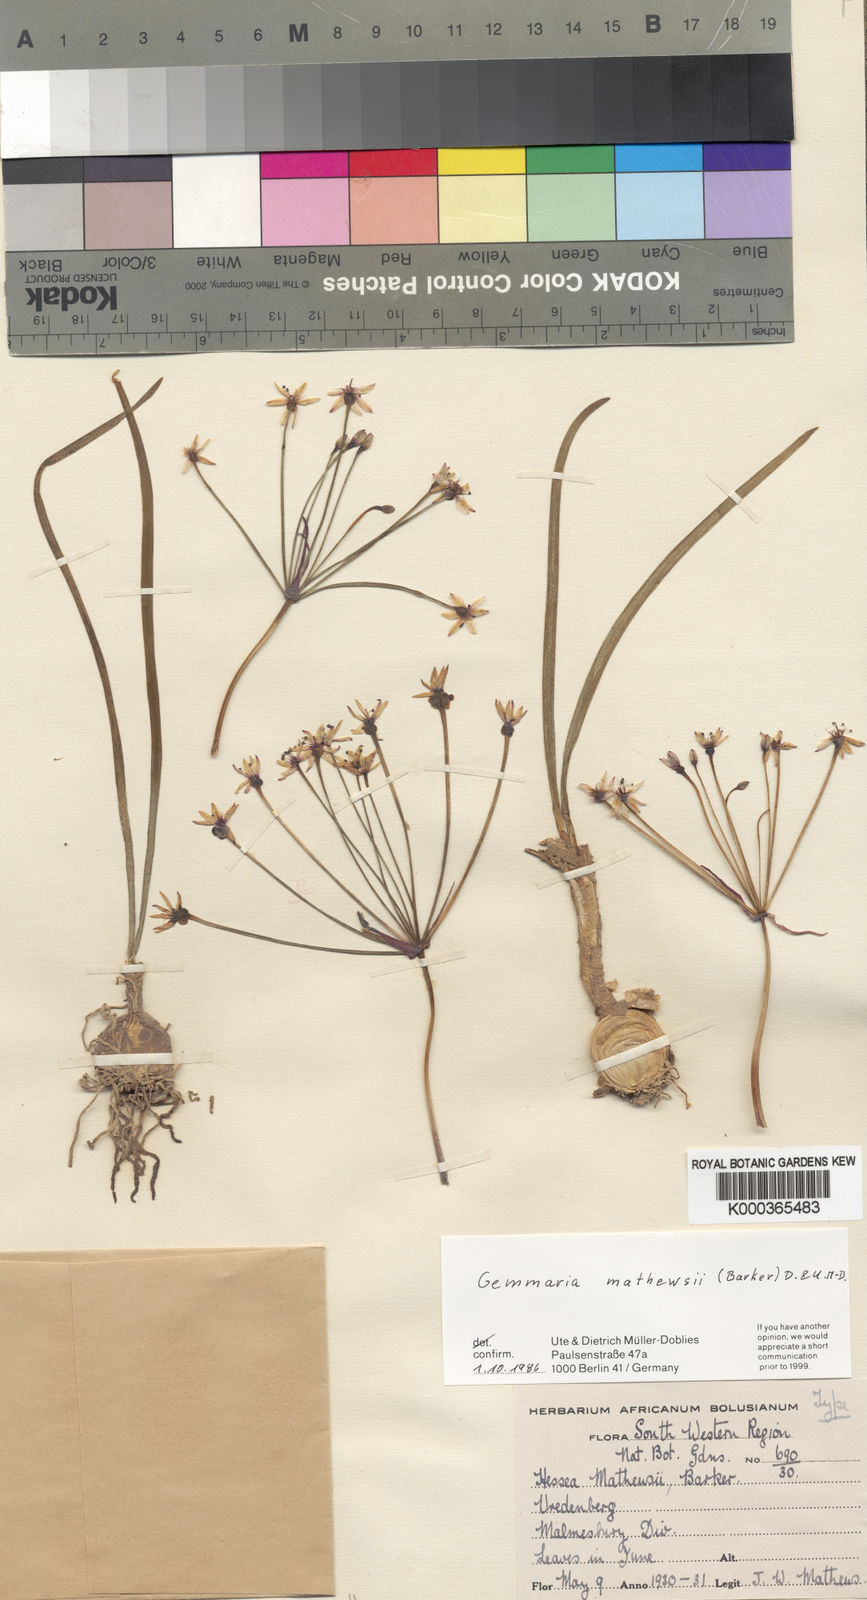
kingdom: Plantae
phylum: Tracheophyta
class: Liliopsida
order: Asparagales
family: Amaryllidaceae
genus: Hessea
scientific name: Hessea mathewsii
